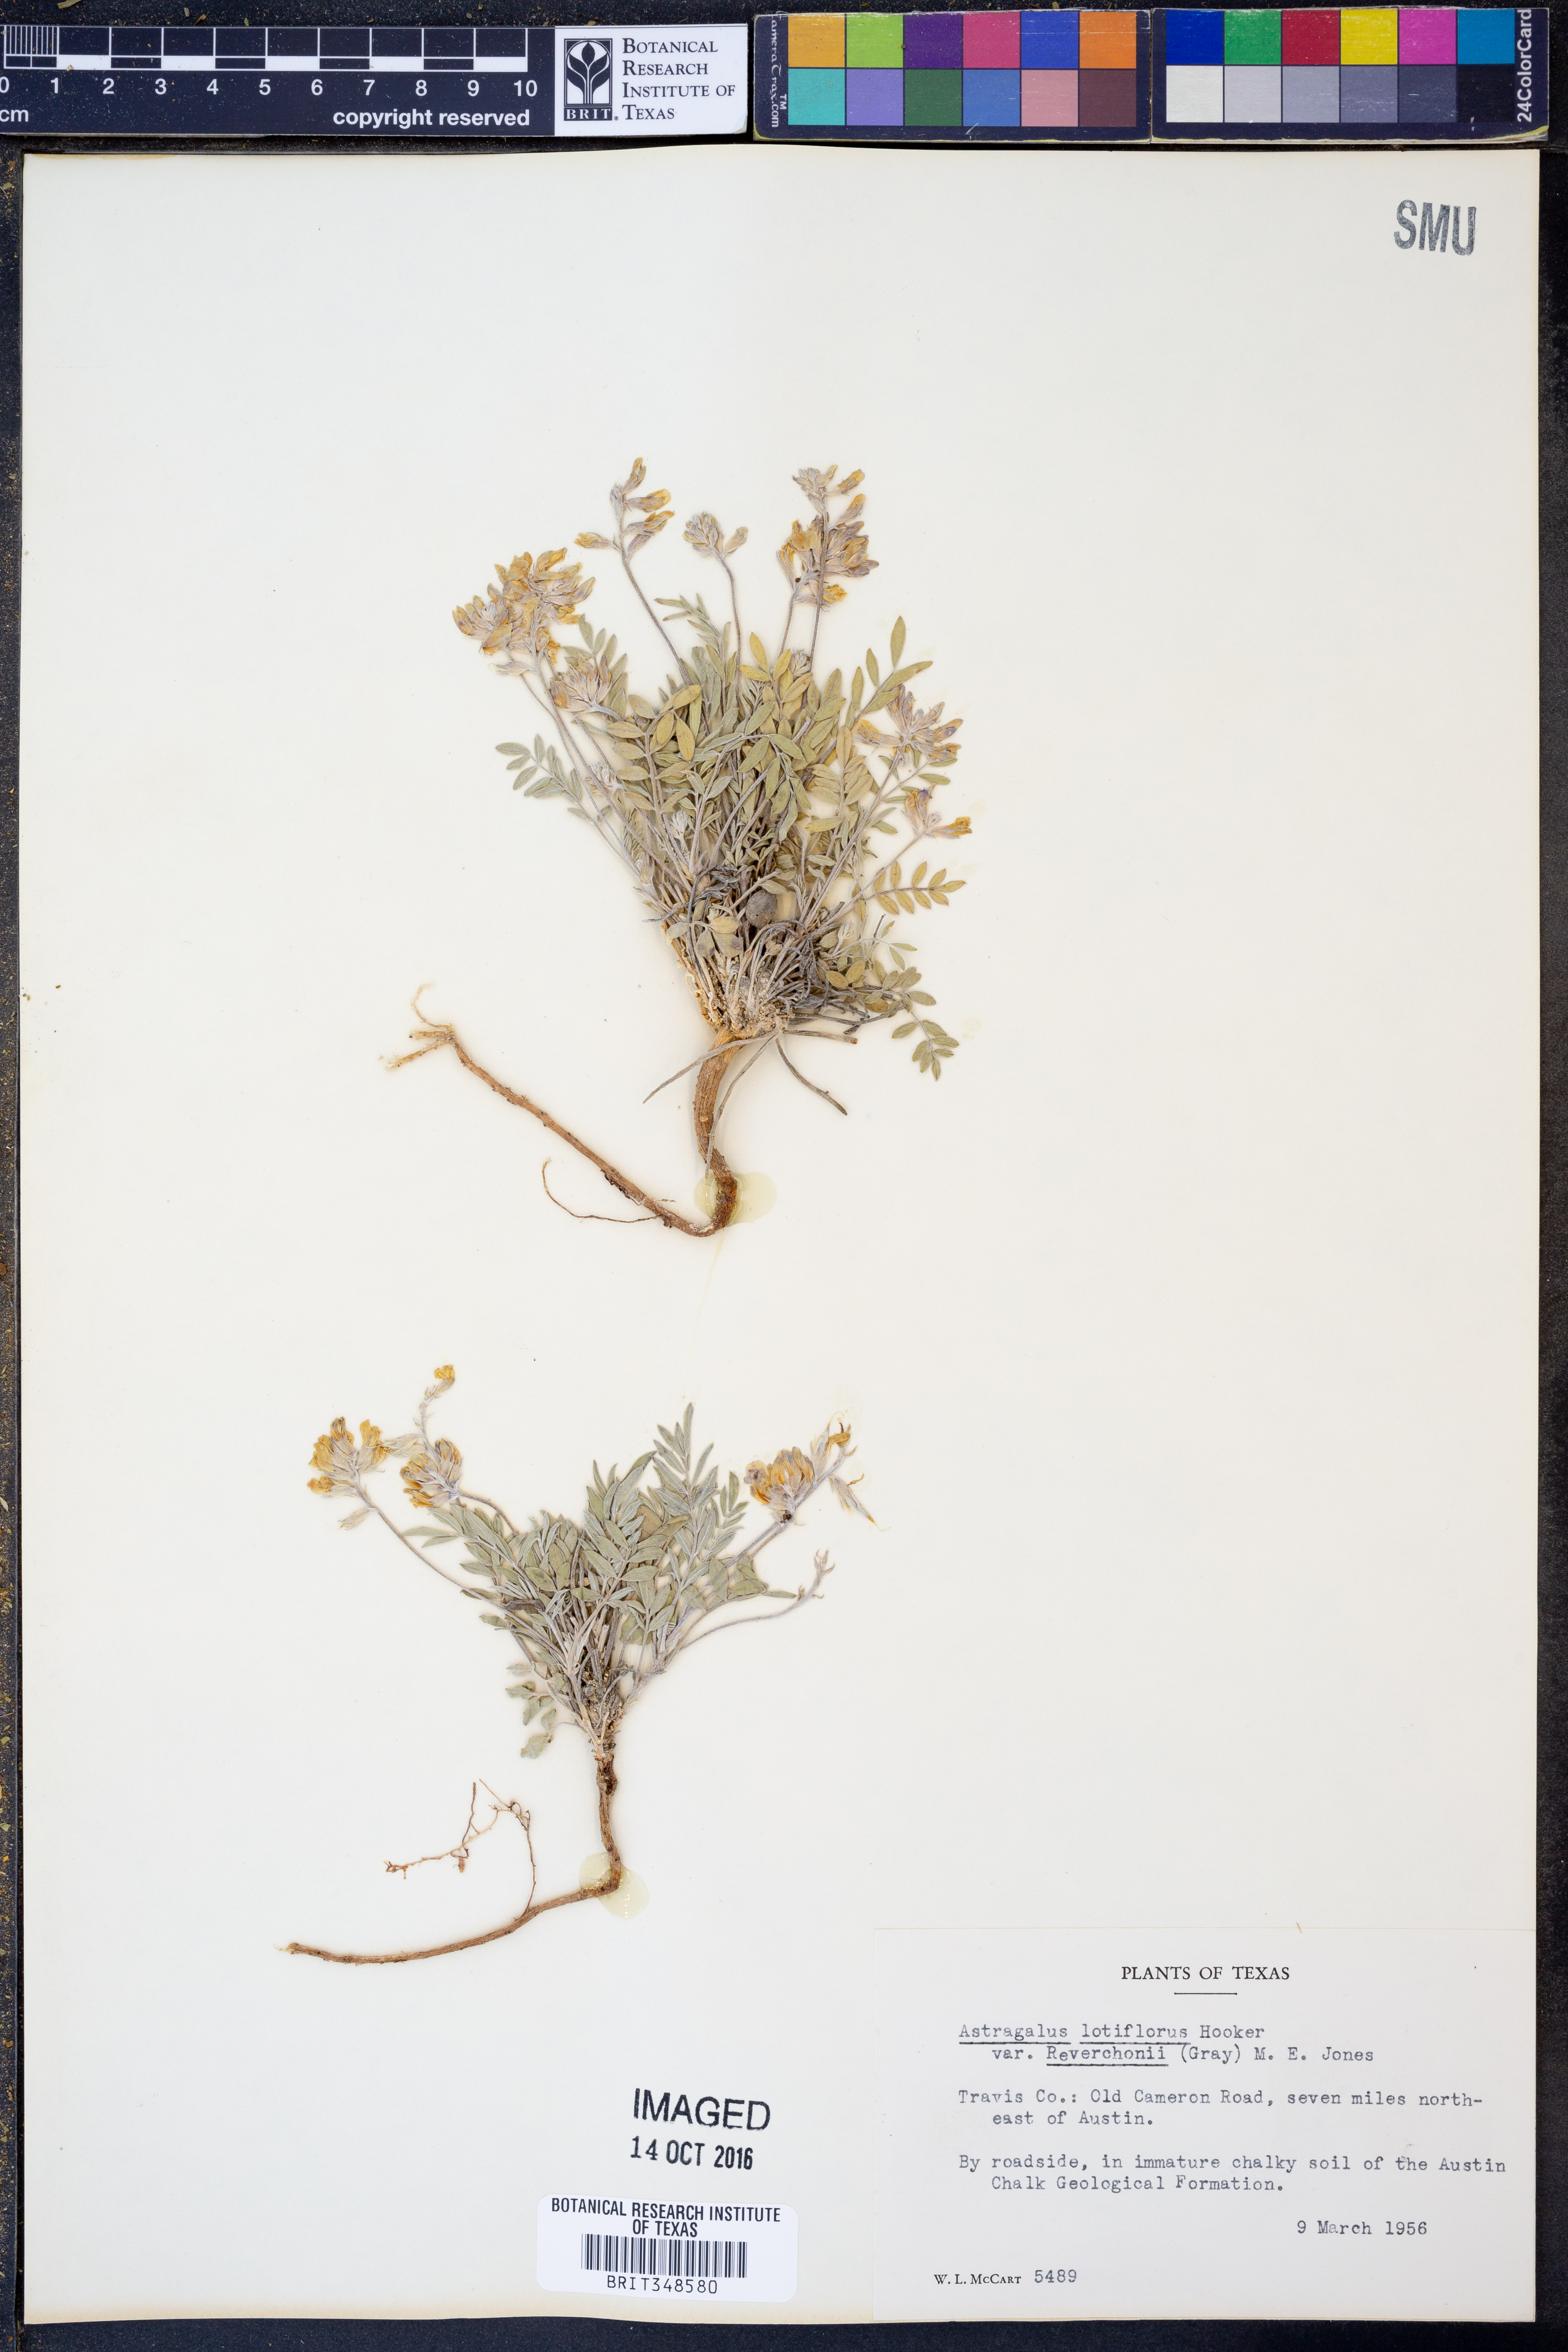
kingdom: Plantae
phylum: Tracheophyta
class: Magnoliopsida
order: Fabales
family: Fabaceae
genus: Astragalus
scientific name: Astragalus lotiflorus
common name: Lotus milk-vetch
